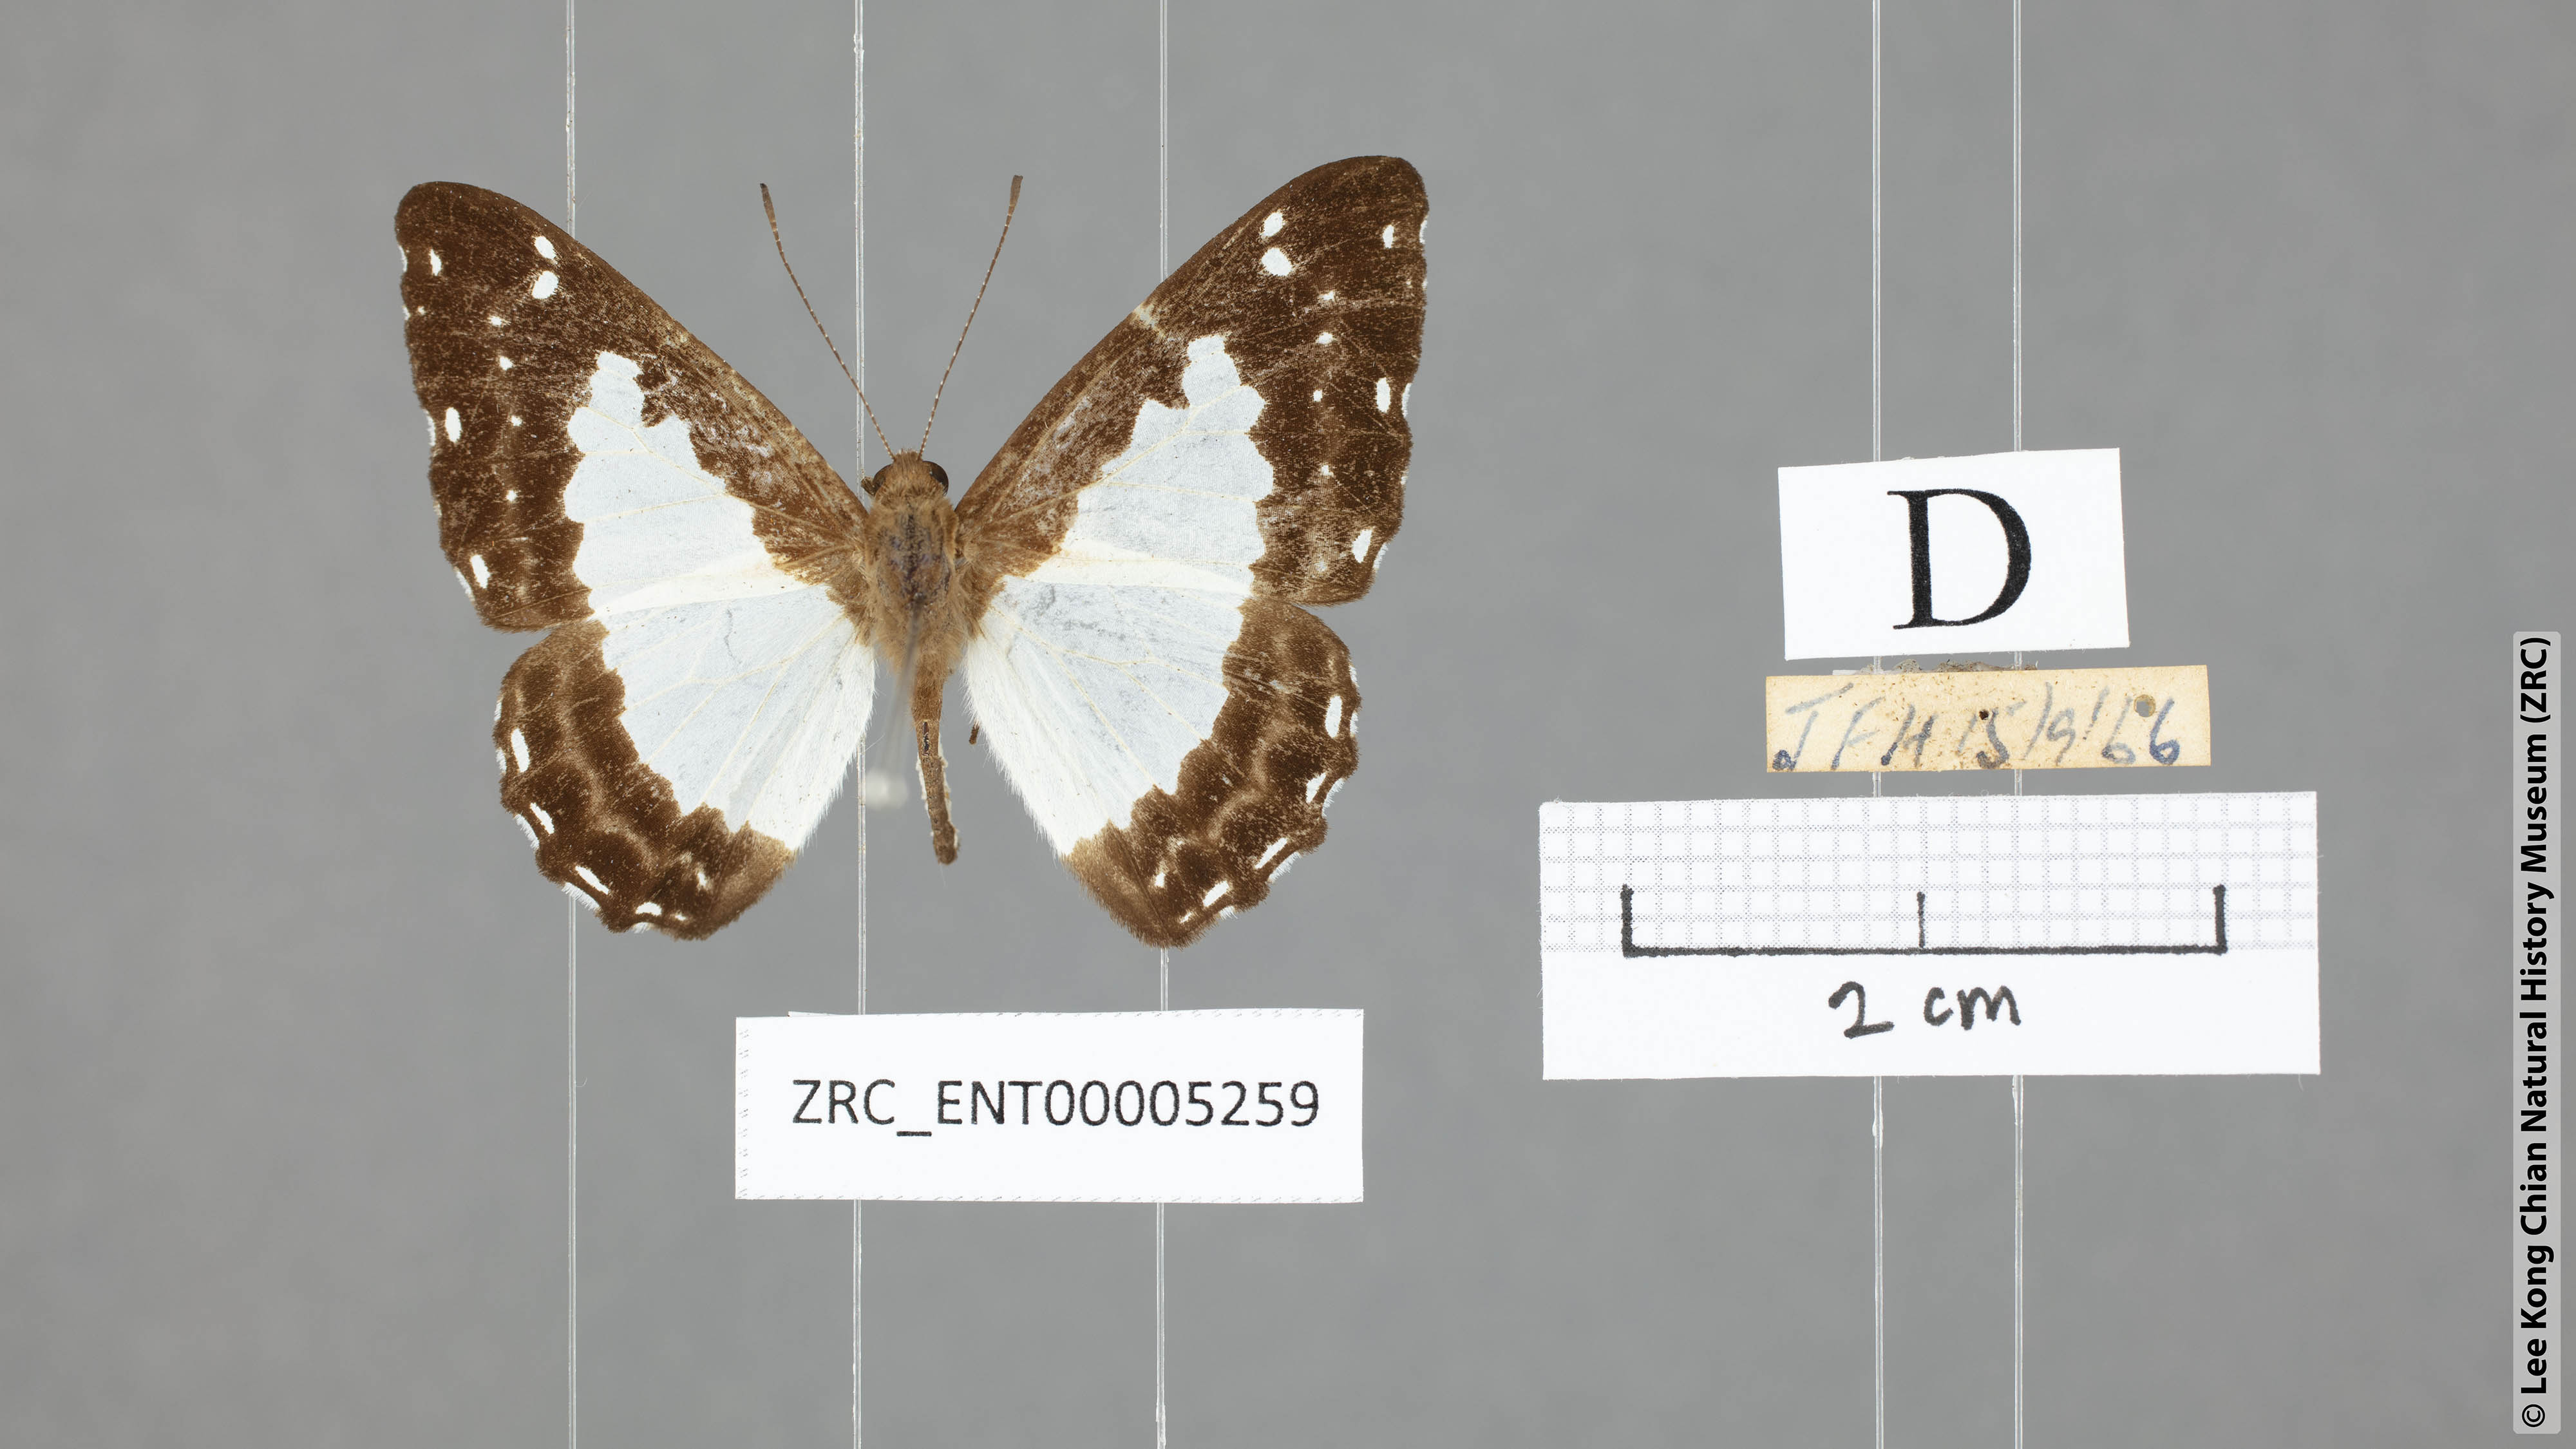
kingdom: Animalia
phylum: Arthropoda
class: Insecta
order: Lepidoptera
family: Riodinidae
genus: Stiboges
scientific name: Stiboges nymphidia
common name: Columbine
